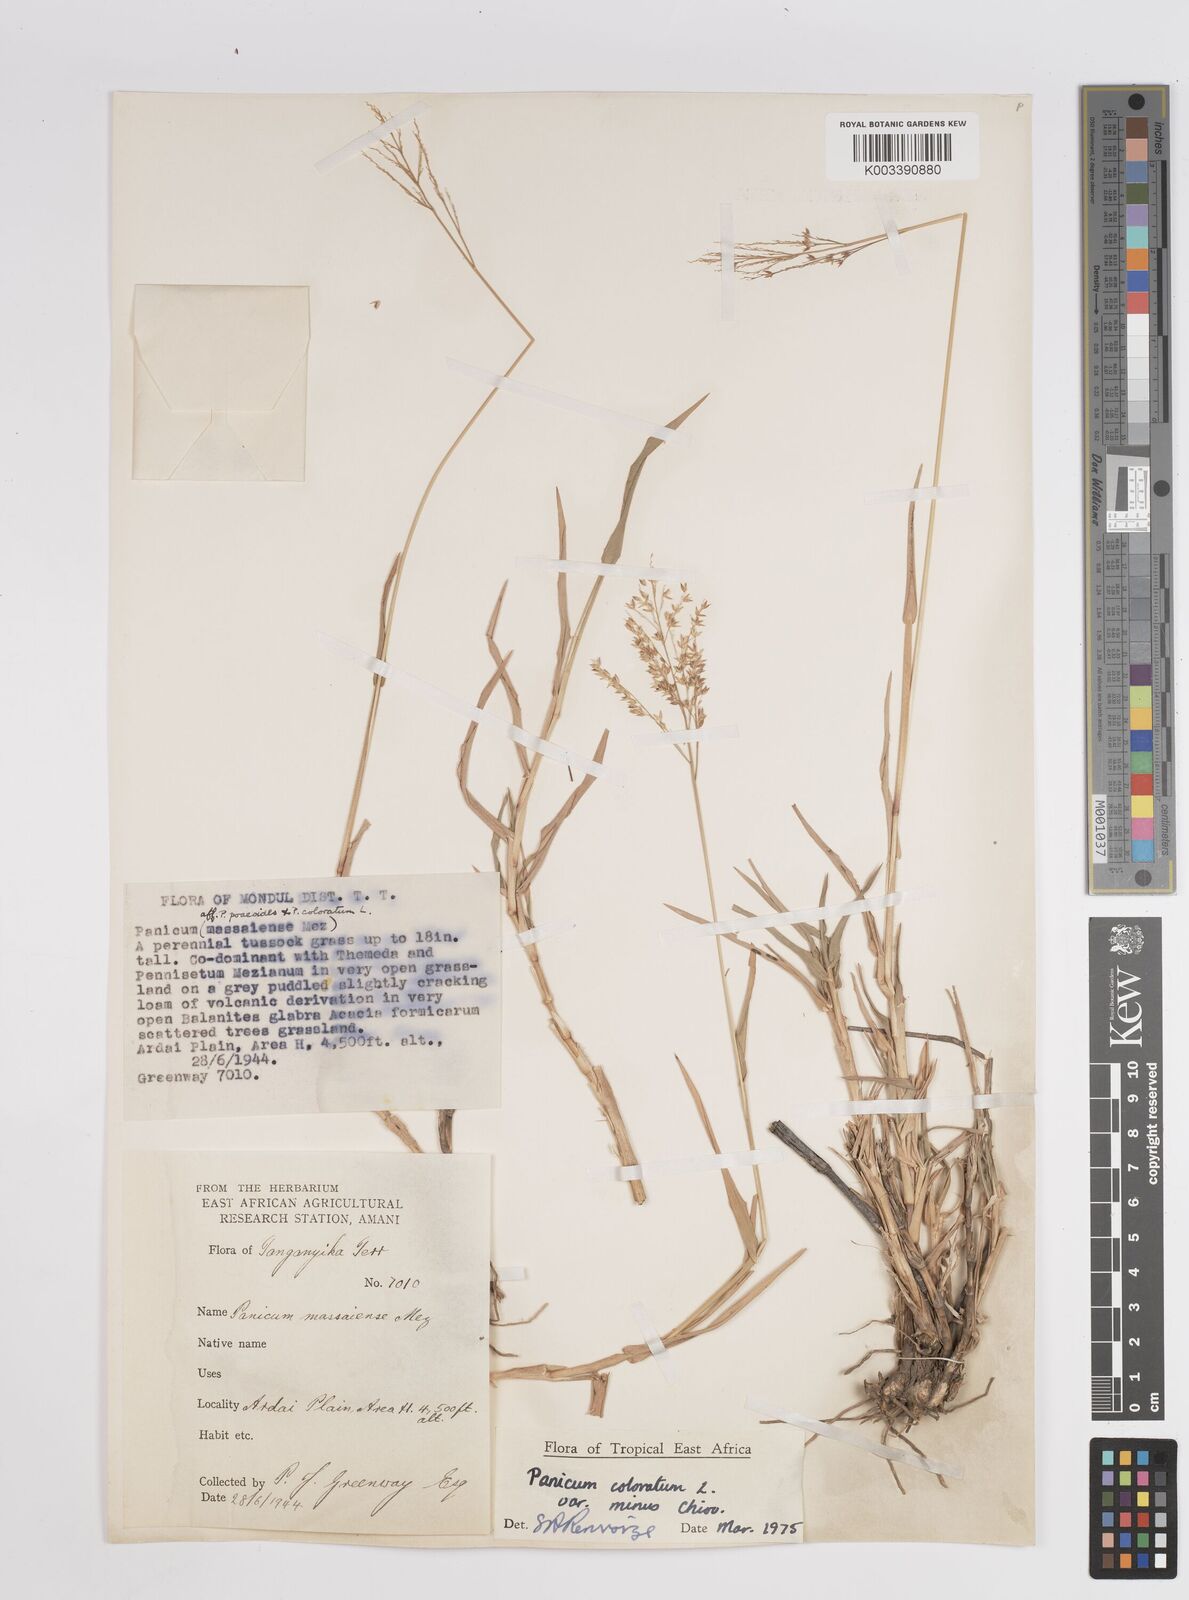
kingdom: Plantae
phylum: Tracheophyta
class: Liliopsida
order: Poales
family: Poaceae
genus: Panicum
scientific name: Panicum coloratum
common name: Kleingrass
